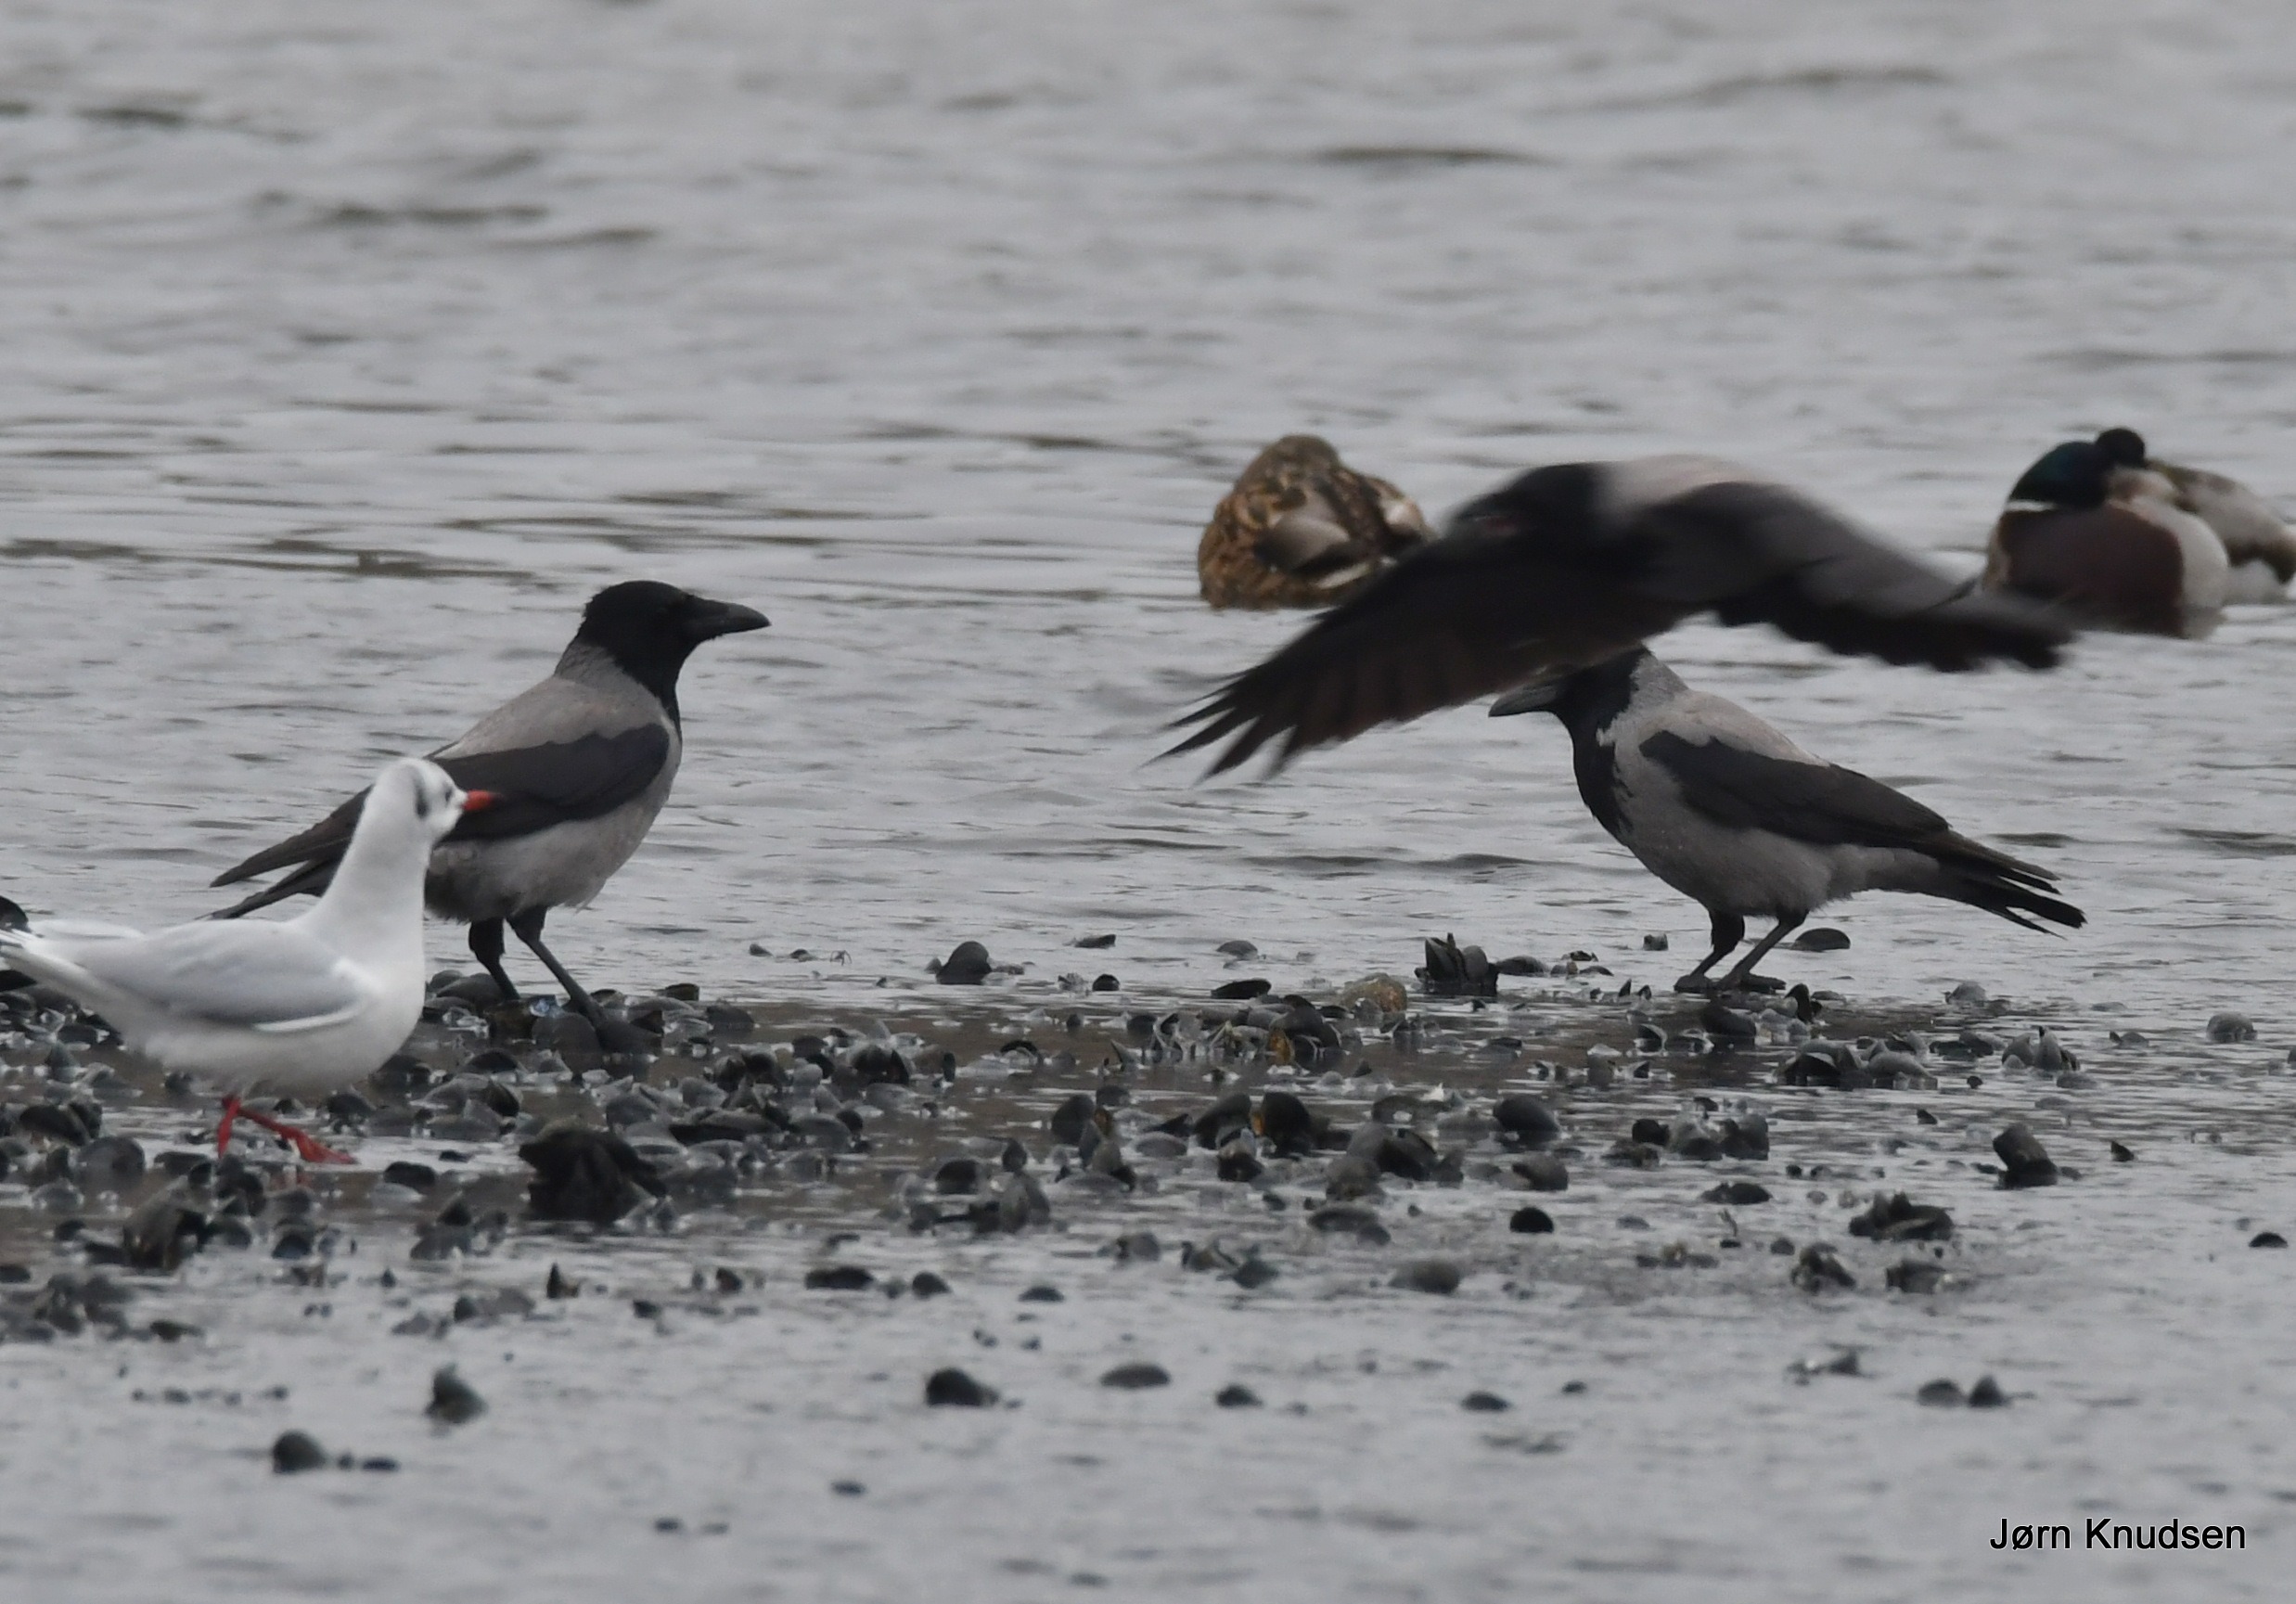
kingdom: Animalia
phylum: Chordata
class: Aves
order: Passeriformes
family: Corvidae
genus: Corvus
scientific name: Corvus cornix
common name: Gråkrage
